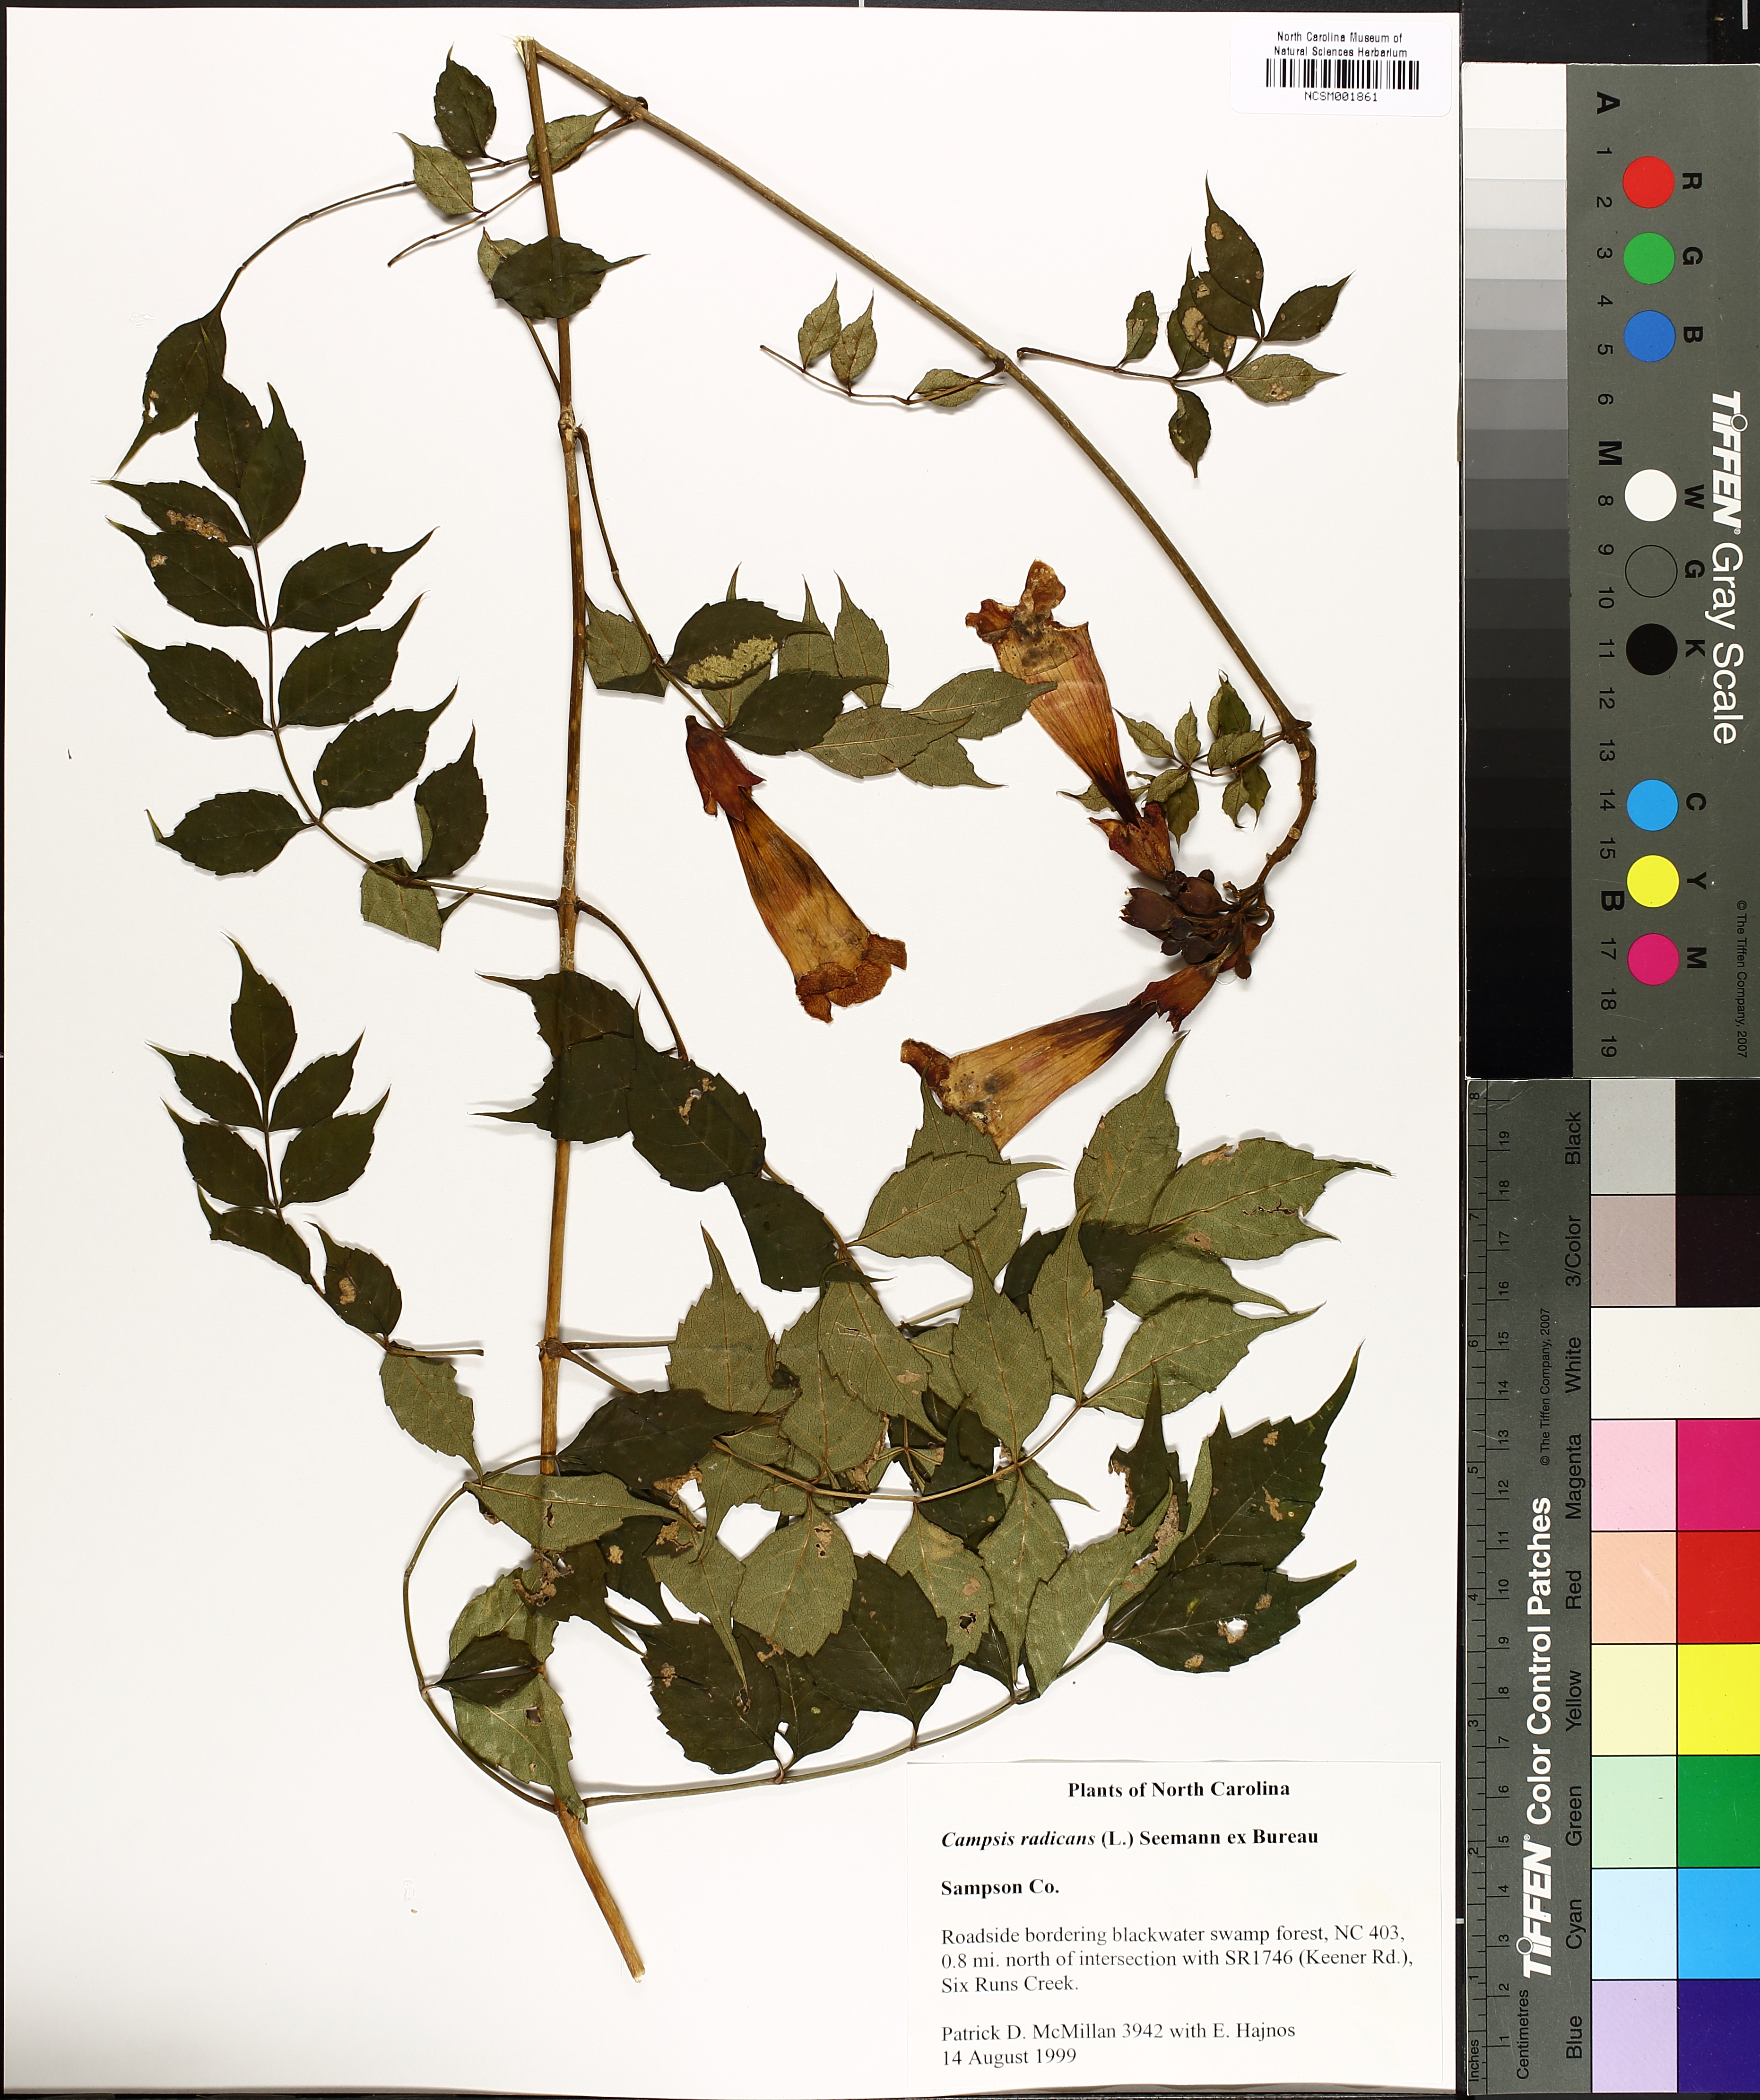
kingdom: Plantae
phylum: Tracheophyta
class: Magnoliopsida
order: Lamiales
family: Bignoniaceae
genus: Campsis
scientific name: Campsis radicans
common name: Trumpet-creeper
